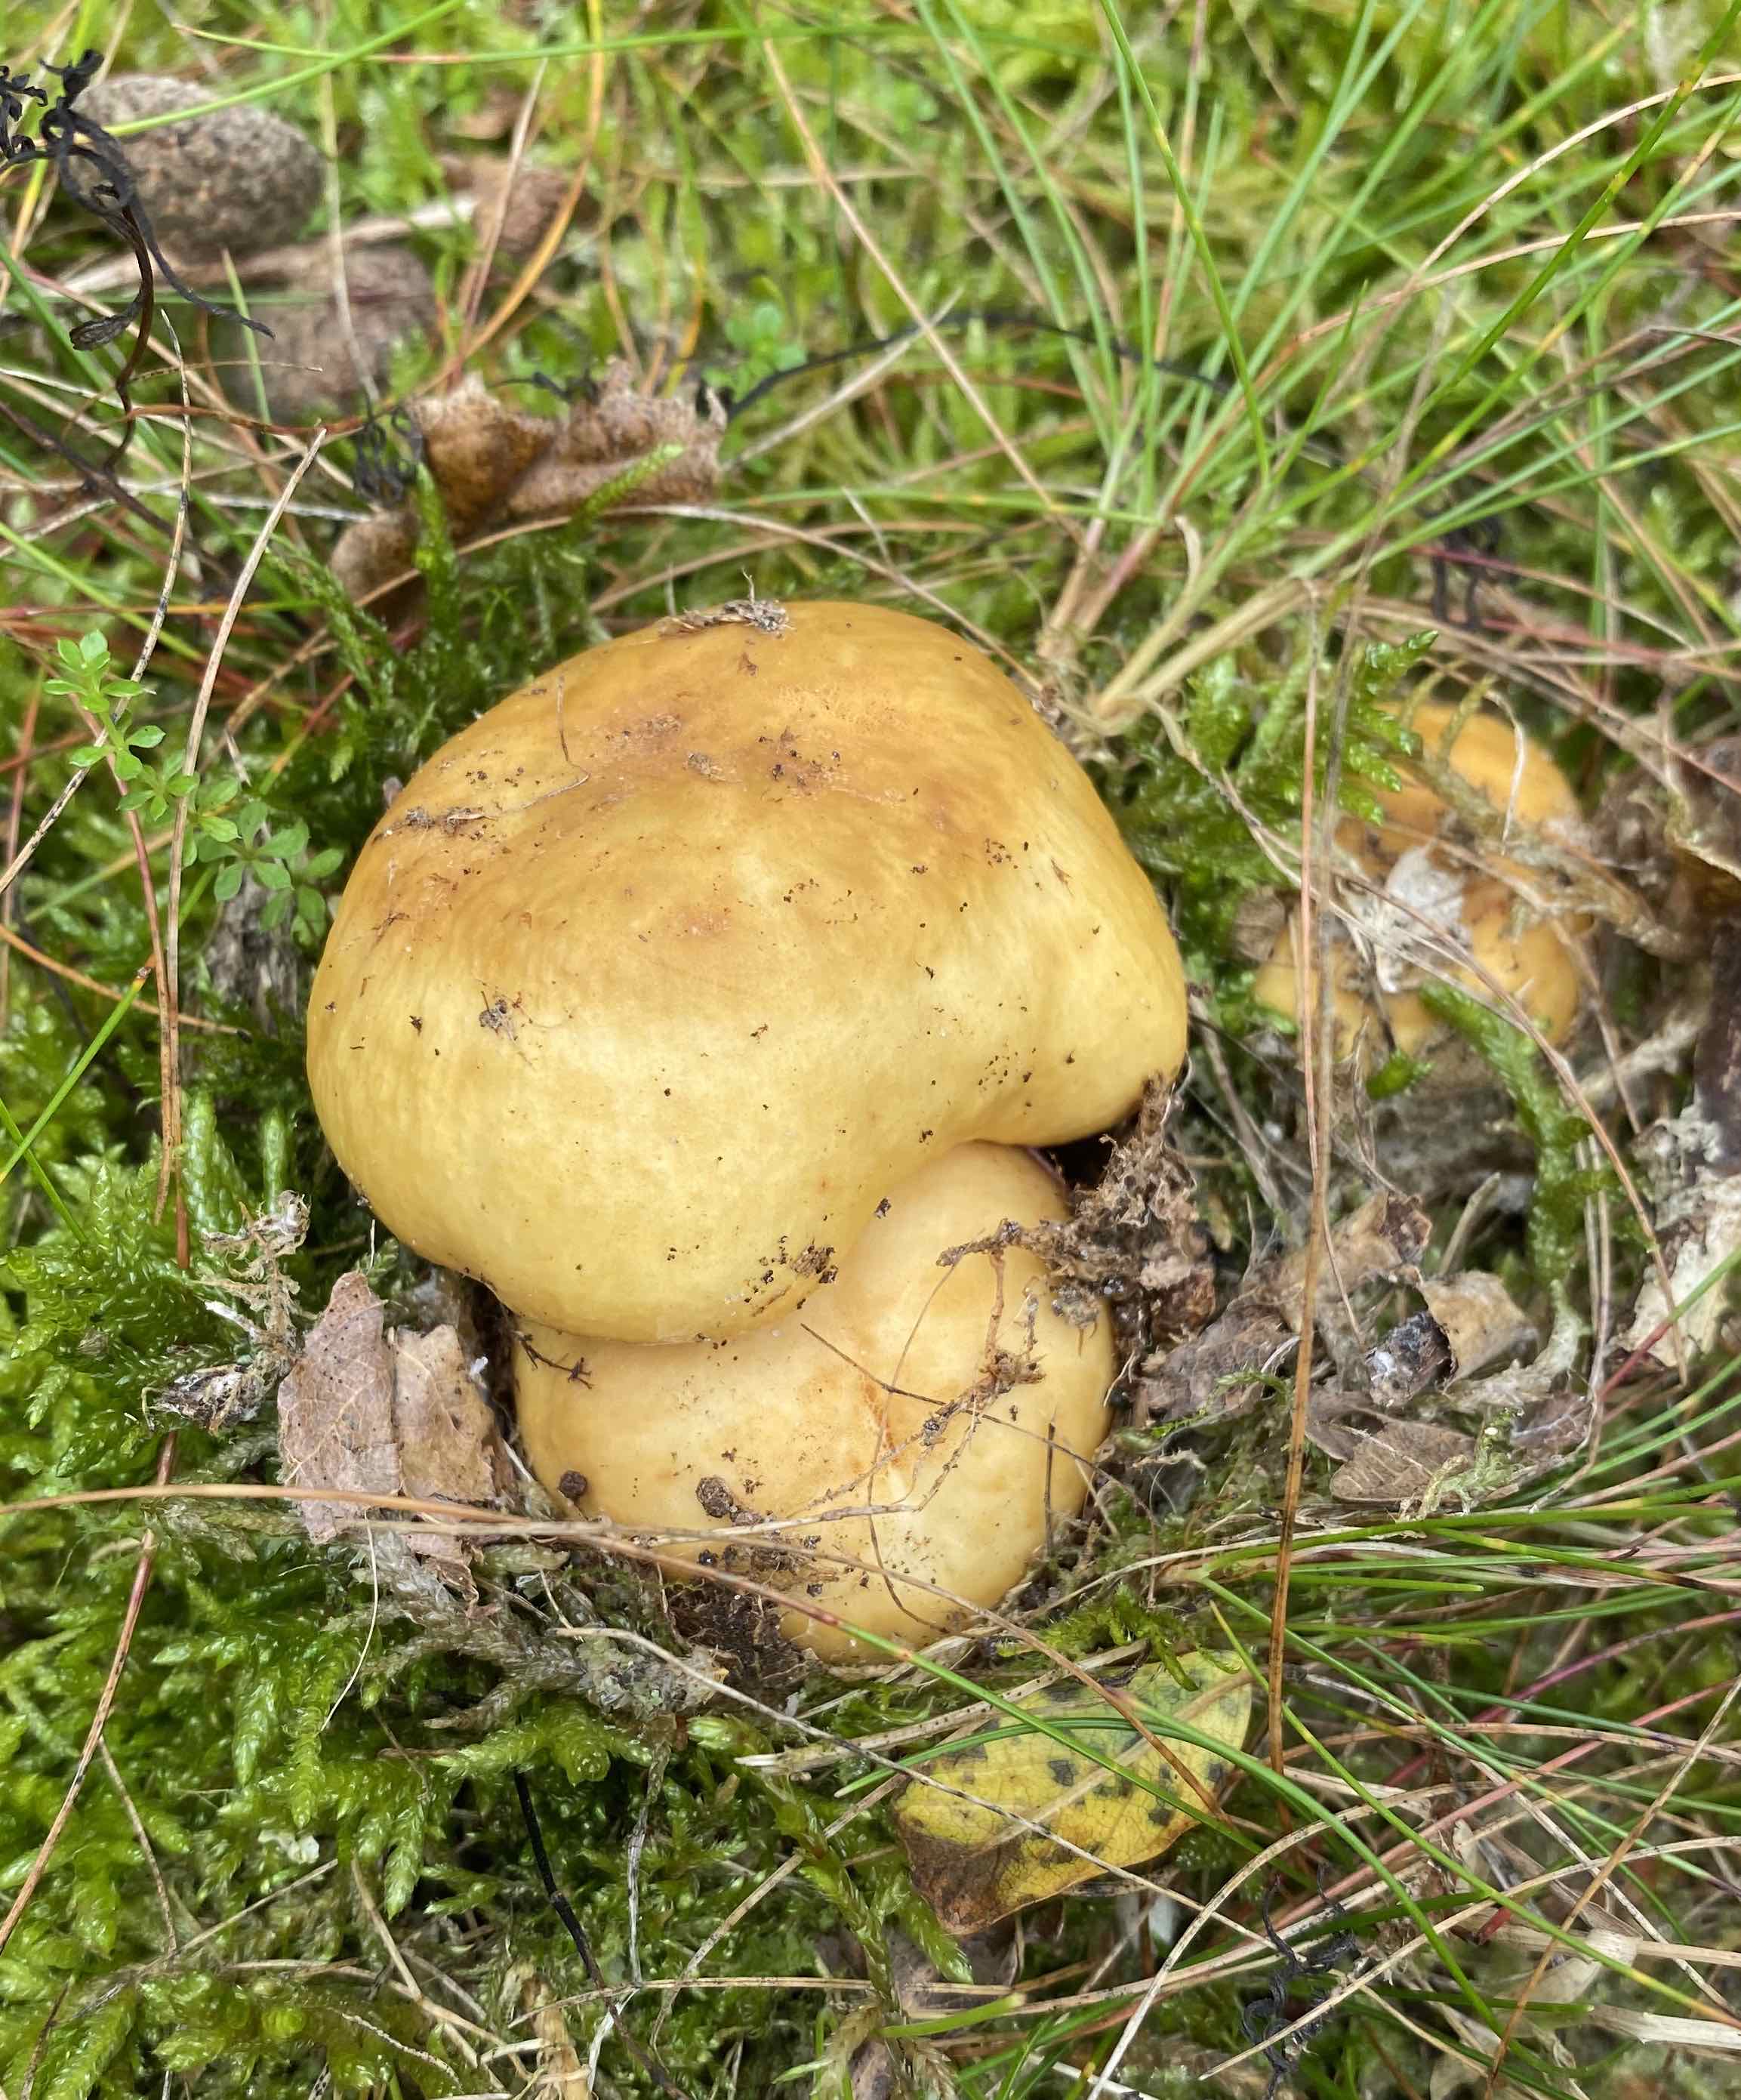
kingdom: Fungi
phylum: Basidiomycota
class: Agaricomycetes
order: Russulales
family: Russulaceae
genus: Russula
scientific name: Russula ochroleuca
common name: okkergul skørhat
